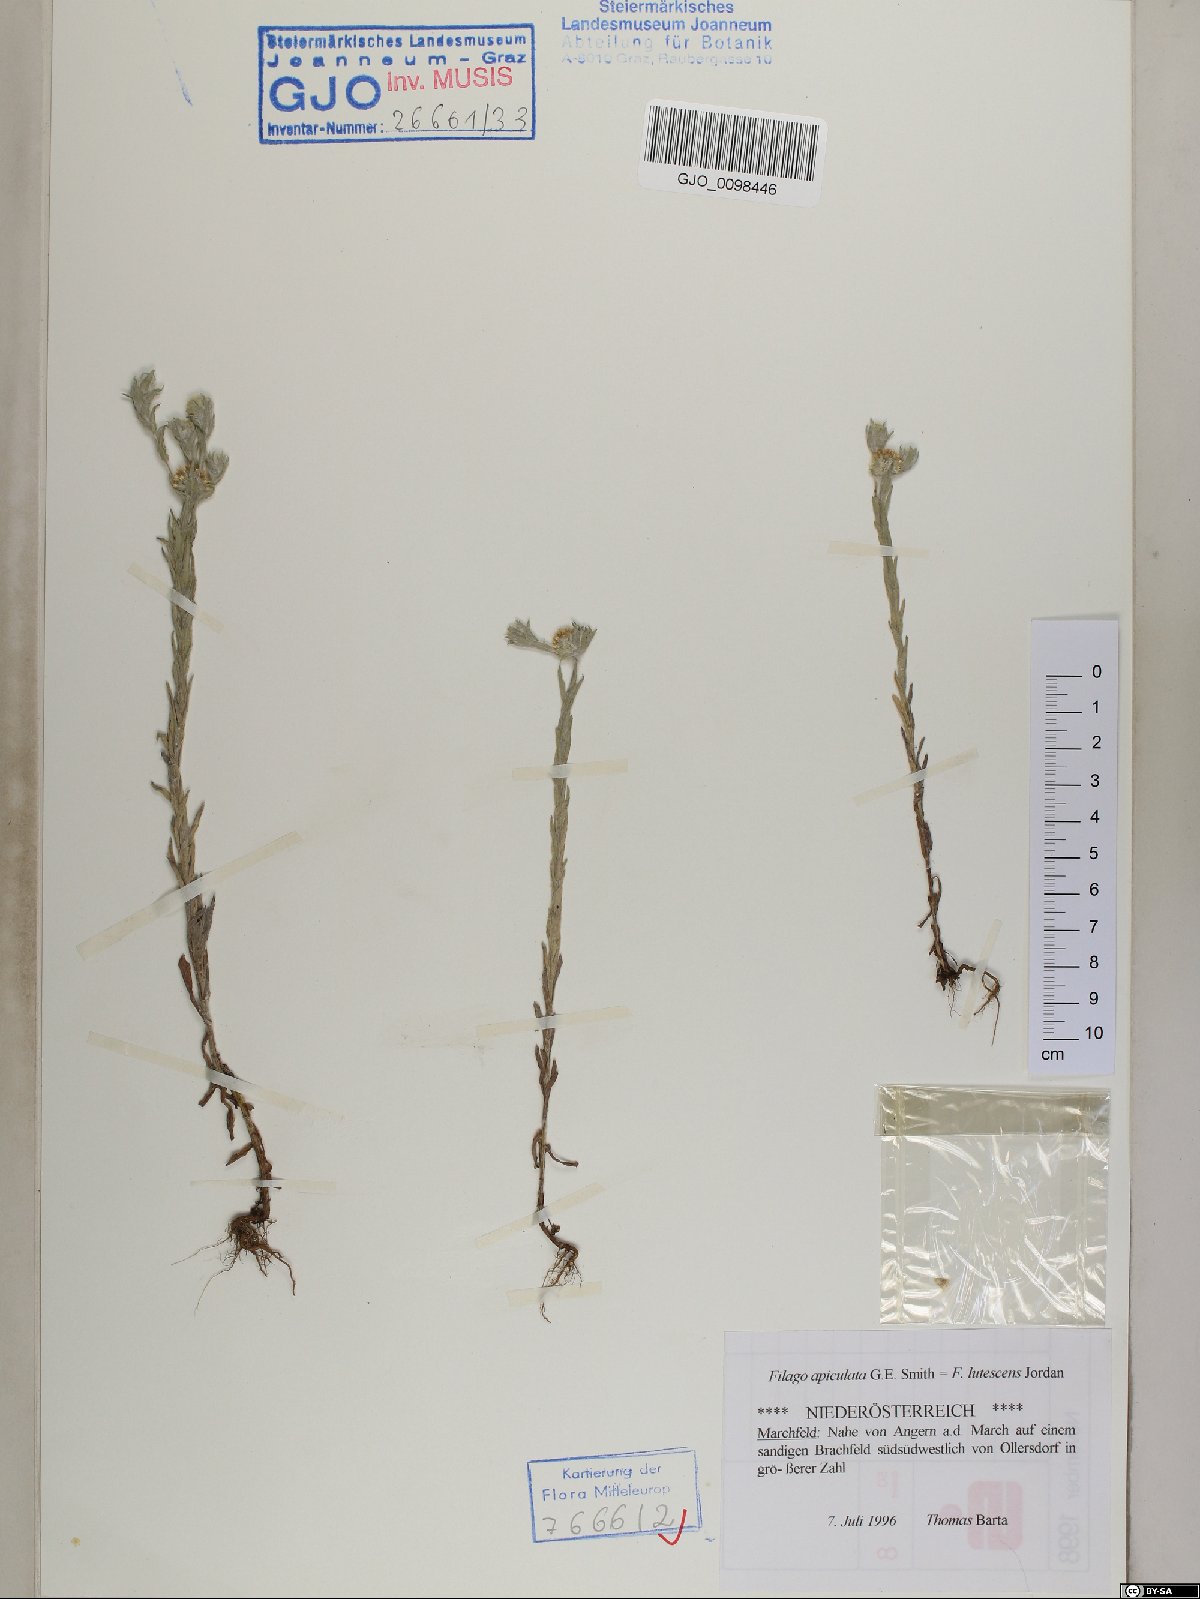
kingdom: Plantae
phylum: Tracheophyta
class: Magnoliopsida
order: Asterales
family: Asteraceae
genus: Filago
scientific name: Filago lutescens
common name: Red-tipped cudweed
